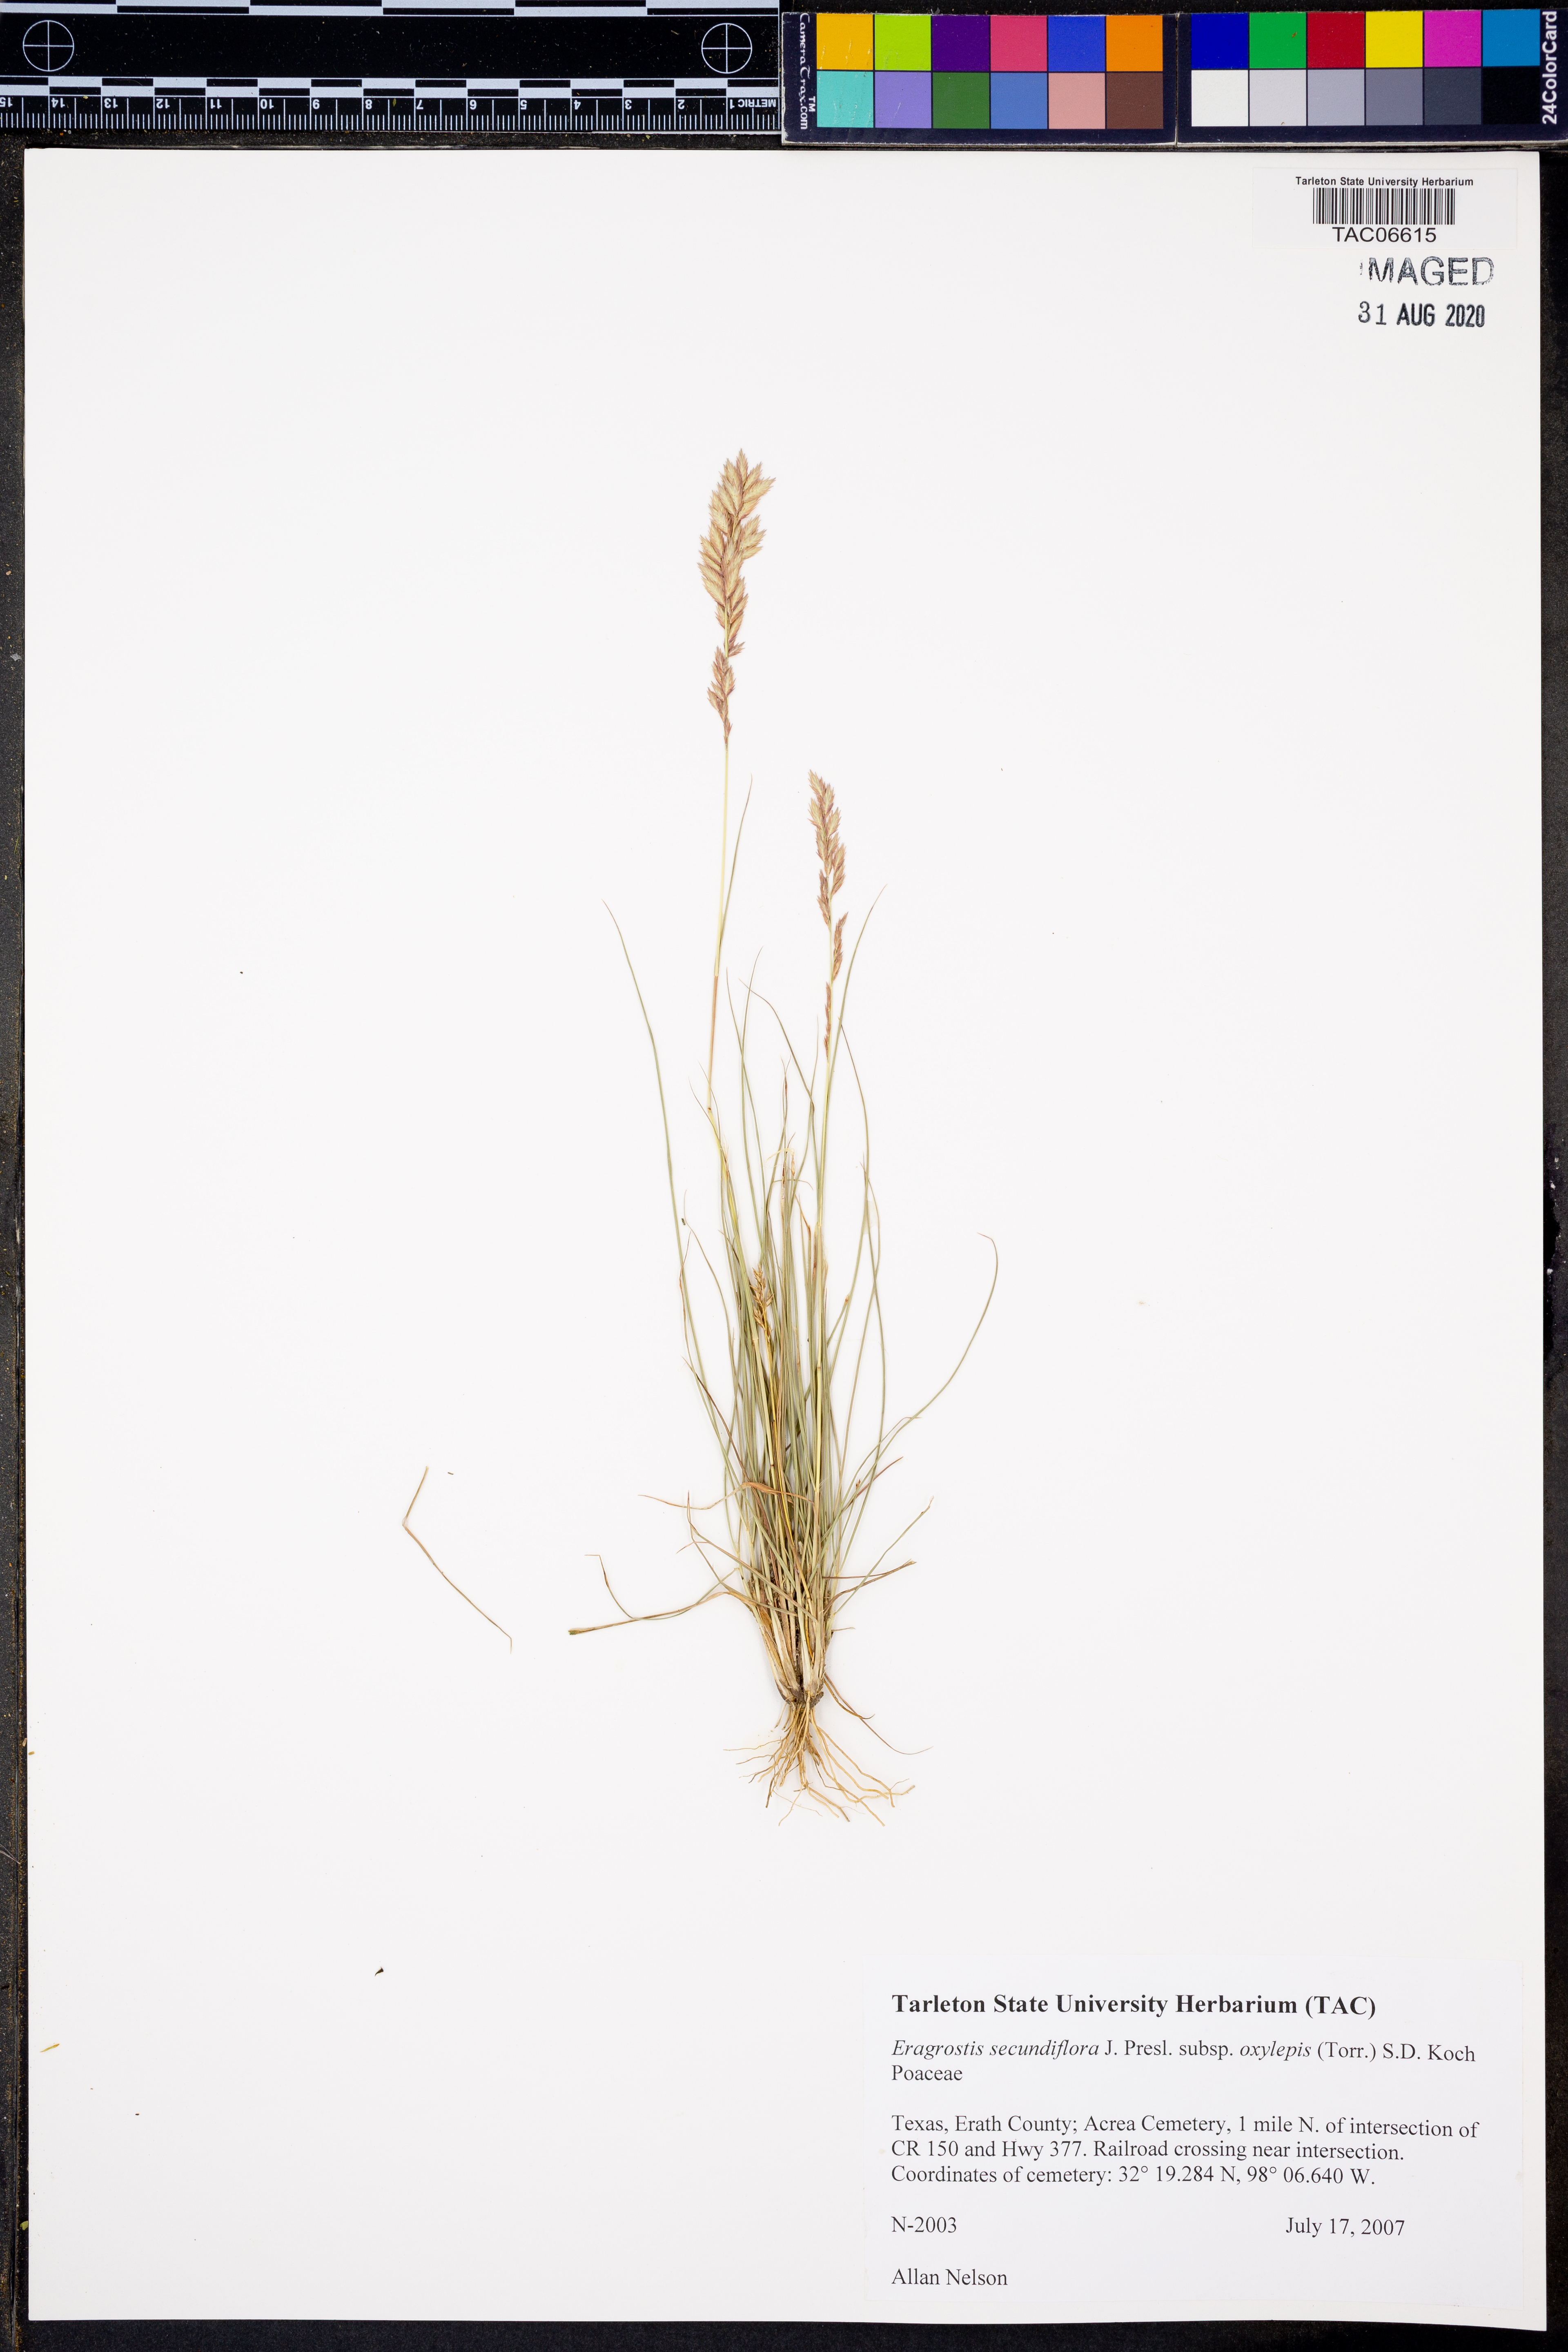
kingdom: Plantae
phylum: Tracheophyta
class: Liliopsida
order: Poales
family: Poaceae
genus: Eragrostis
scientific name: Eragrostis secundiflora
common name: Red love grass
